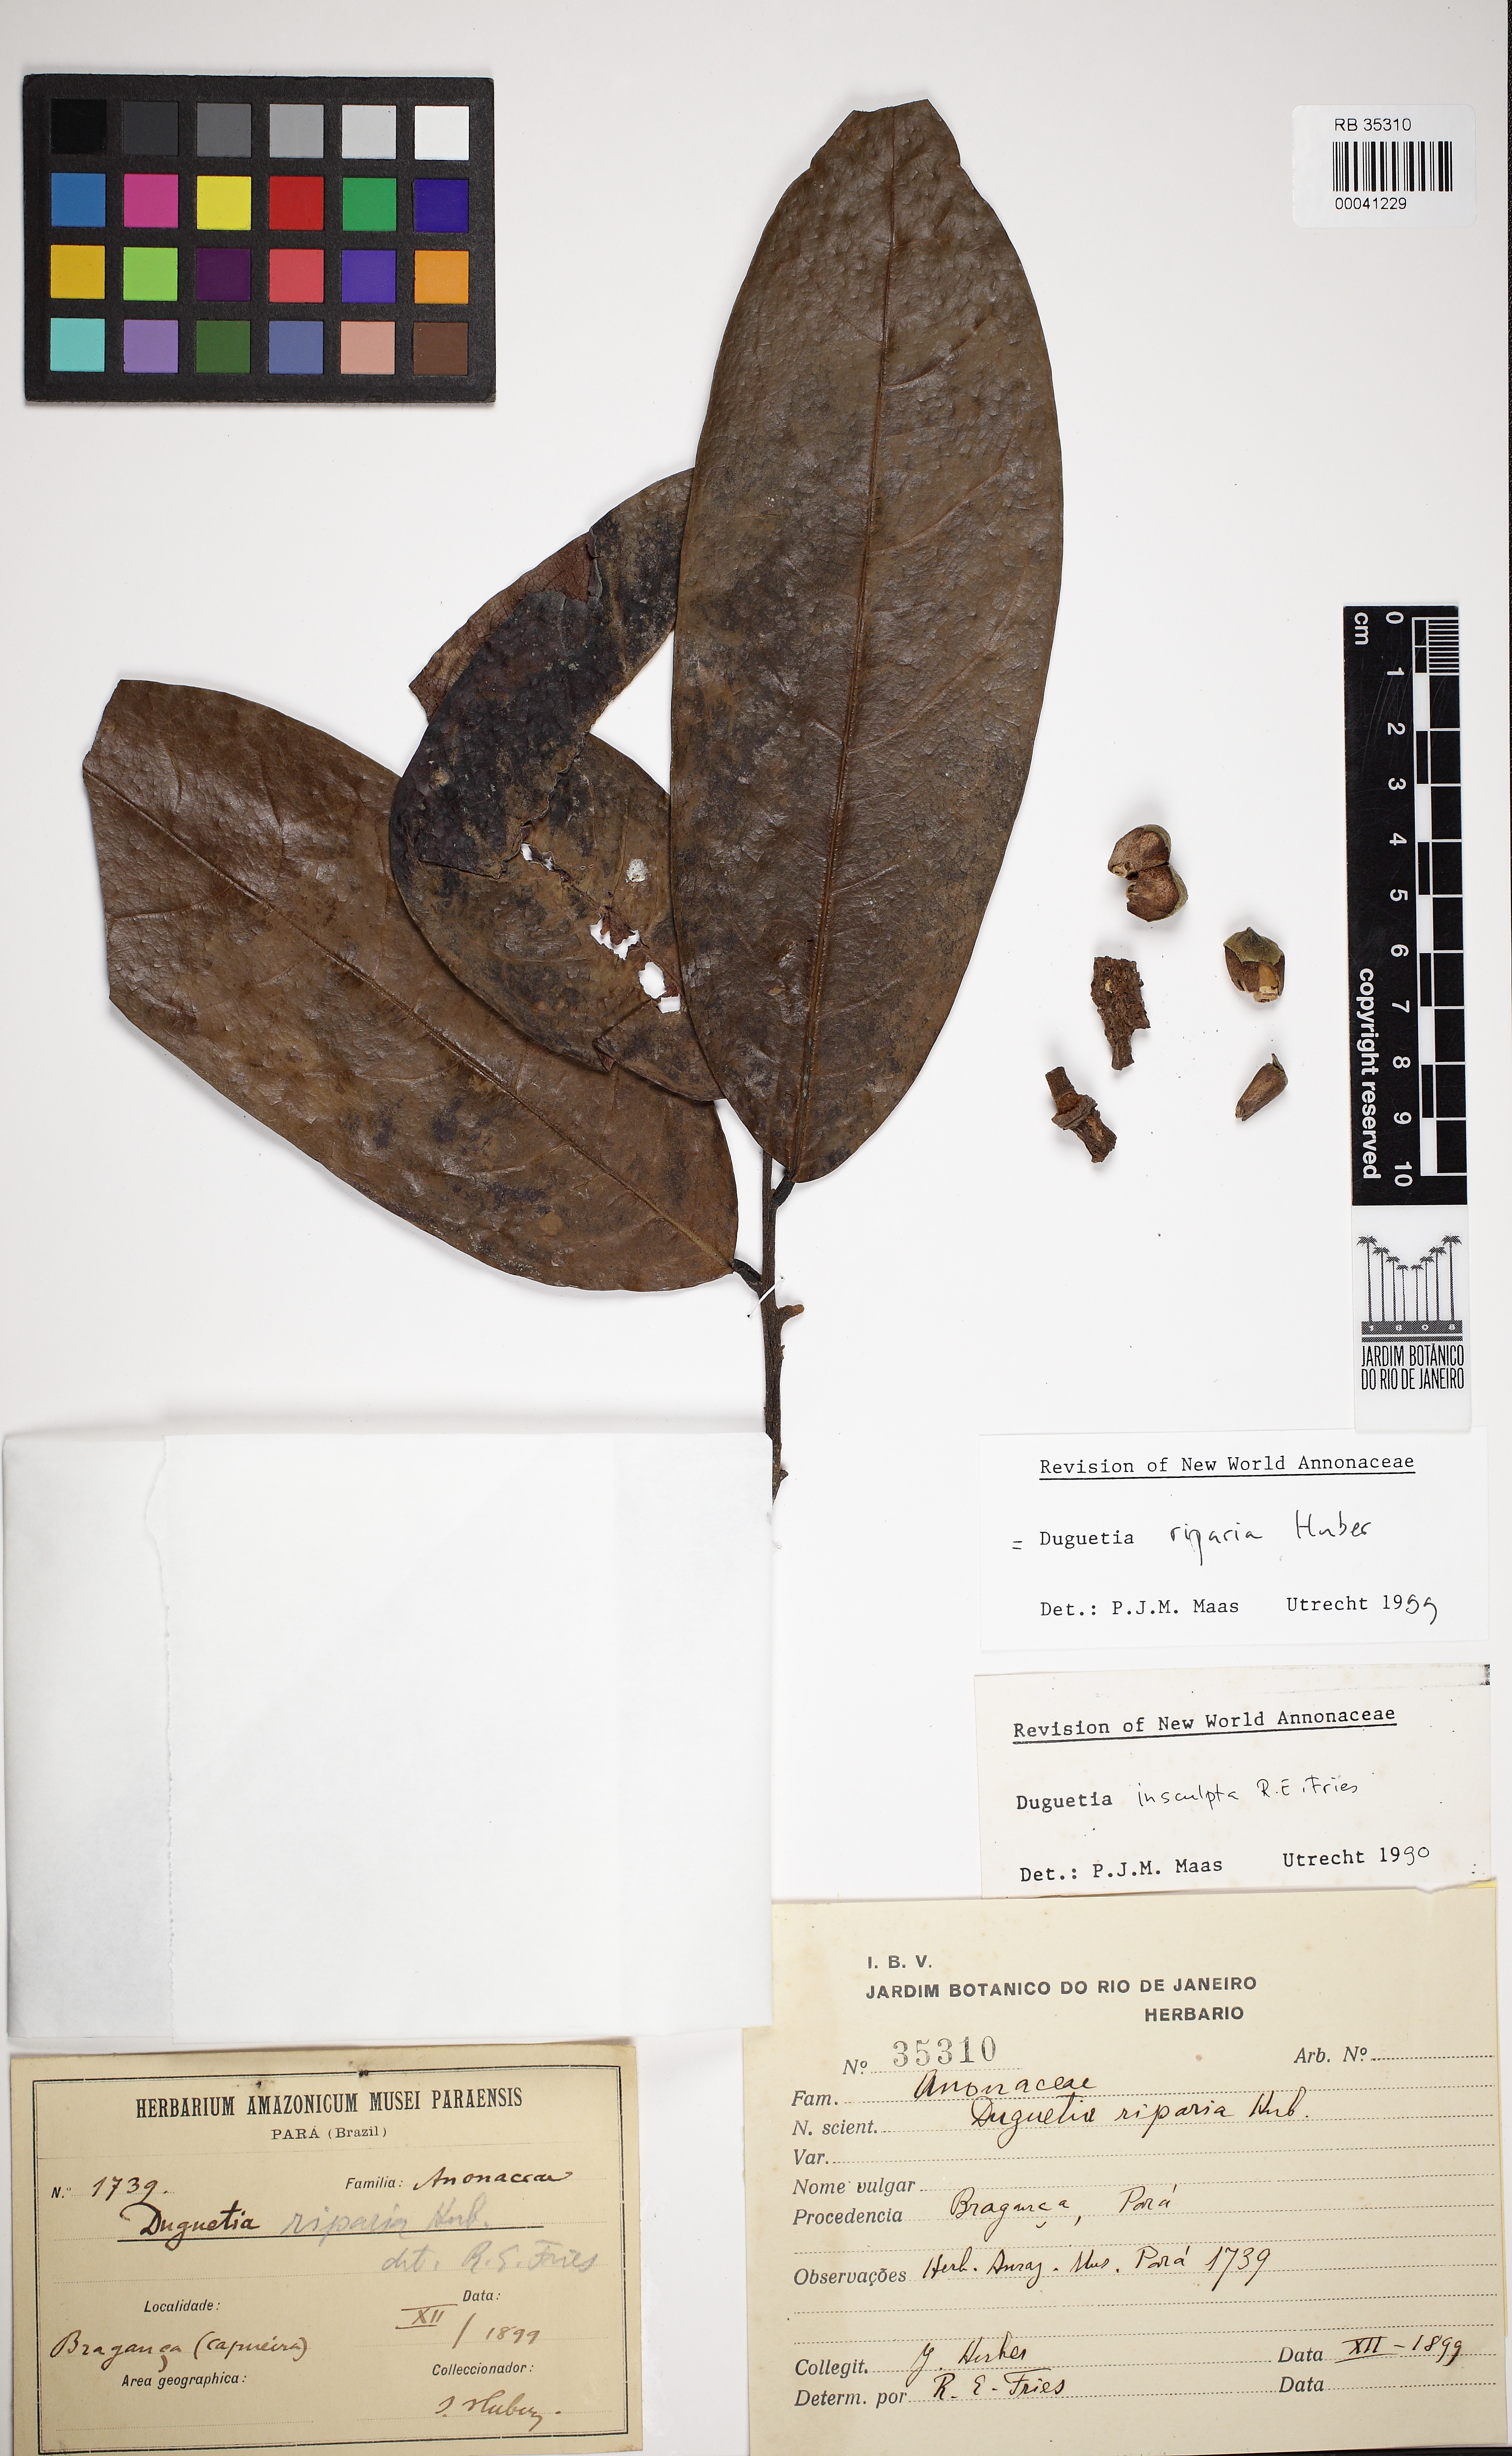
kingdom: Plantae
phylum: Tracheophyta
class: Magnoliopsida
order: Magnoliales
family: Annonaceae
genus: Duguetia
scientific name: Duguetia riparia
